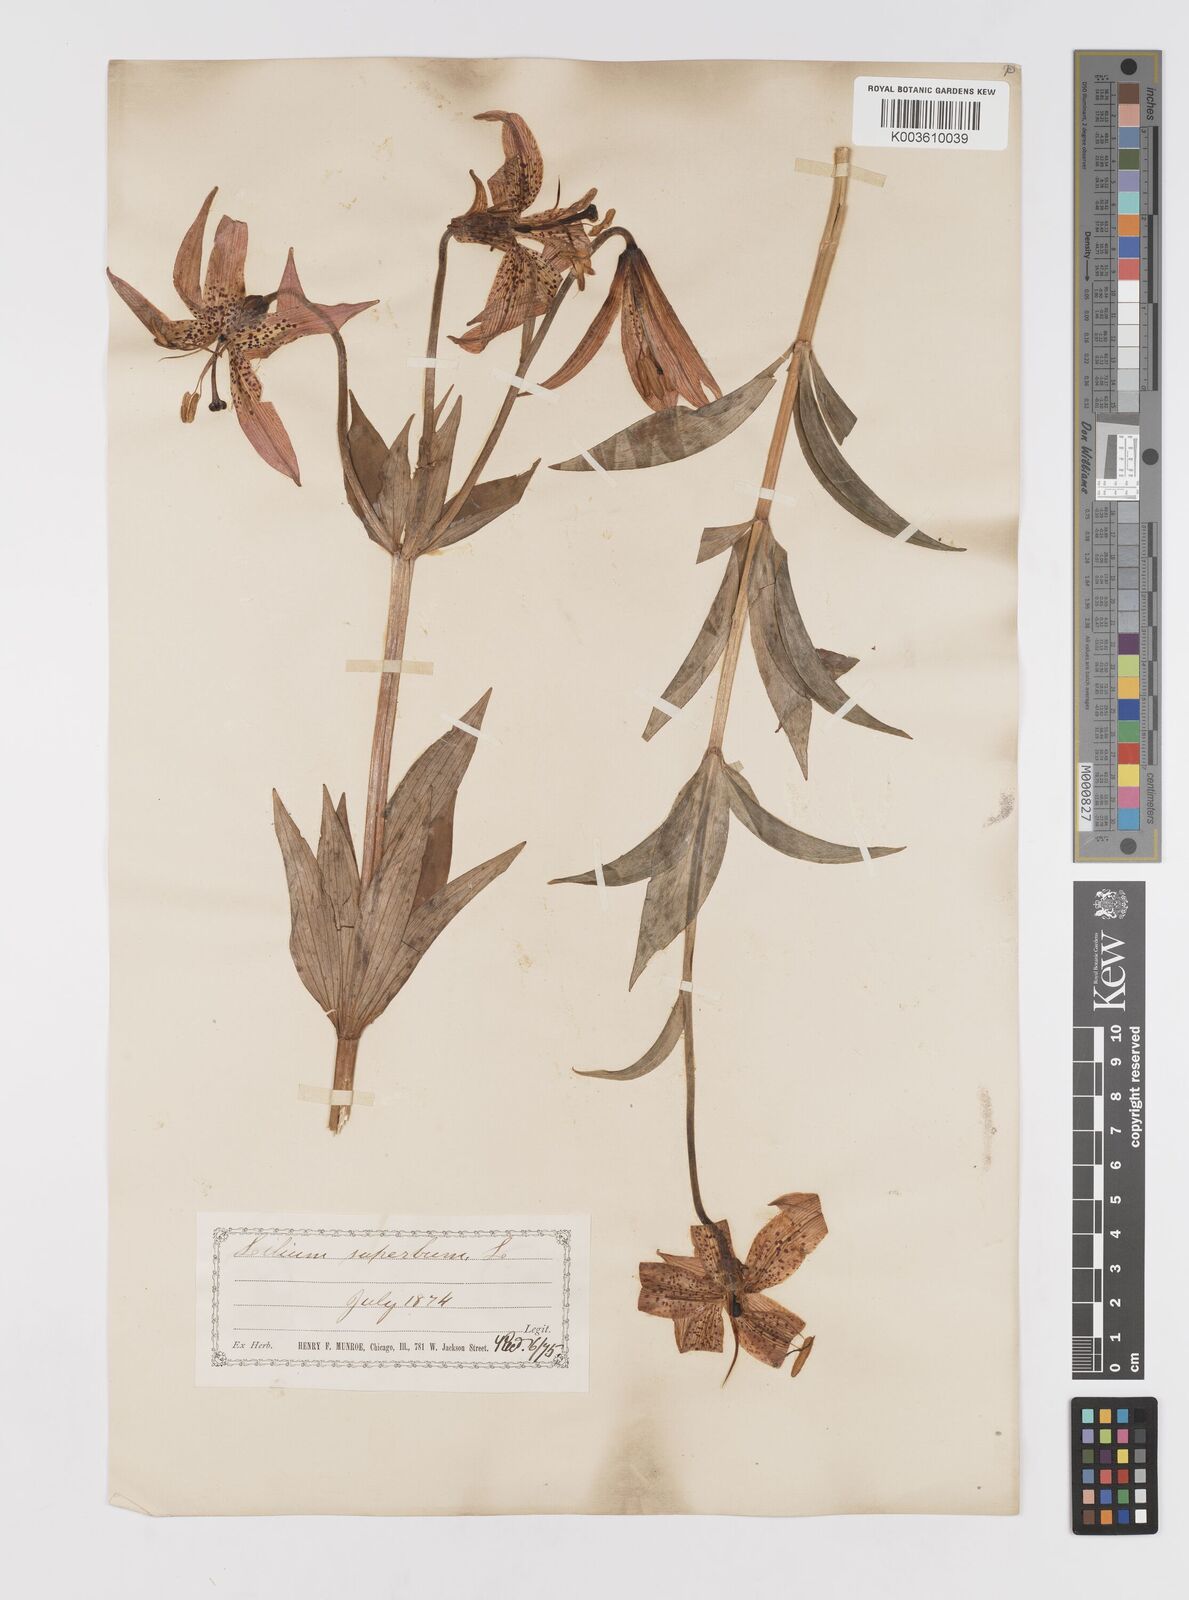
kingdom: Plantae
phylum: Tracheophyta
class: Liliopsida
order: Liliales
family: Liliaceae
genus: Lilium
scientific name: Lilium superbum
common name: American turk's-cap lily
